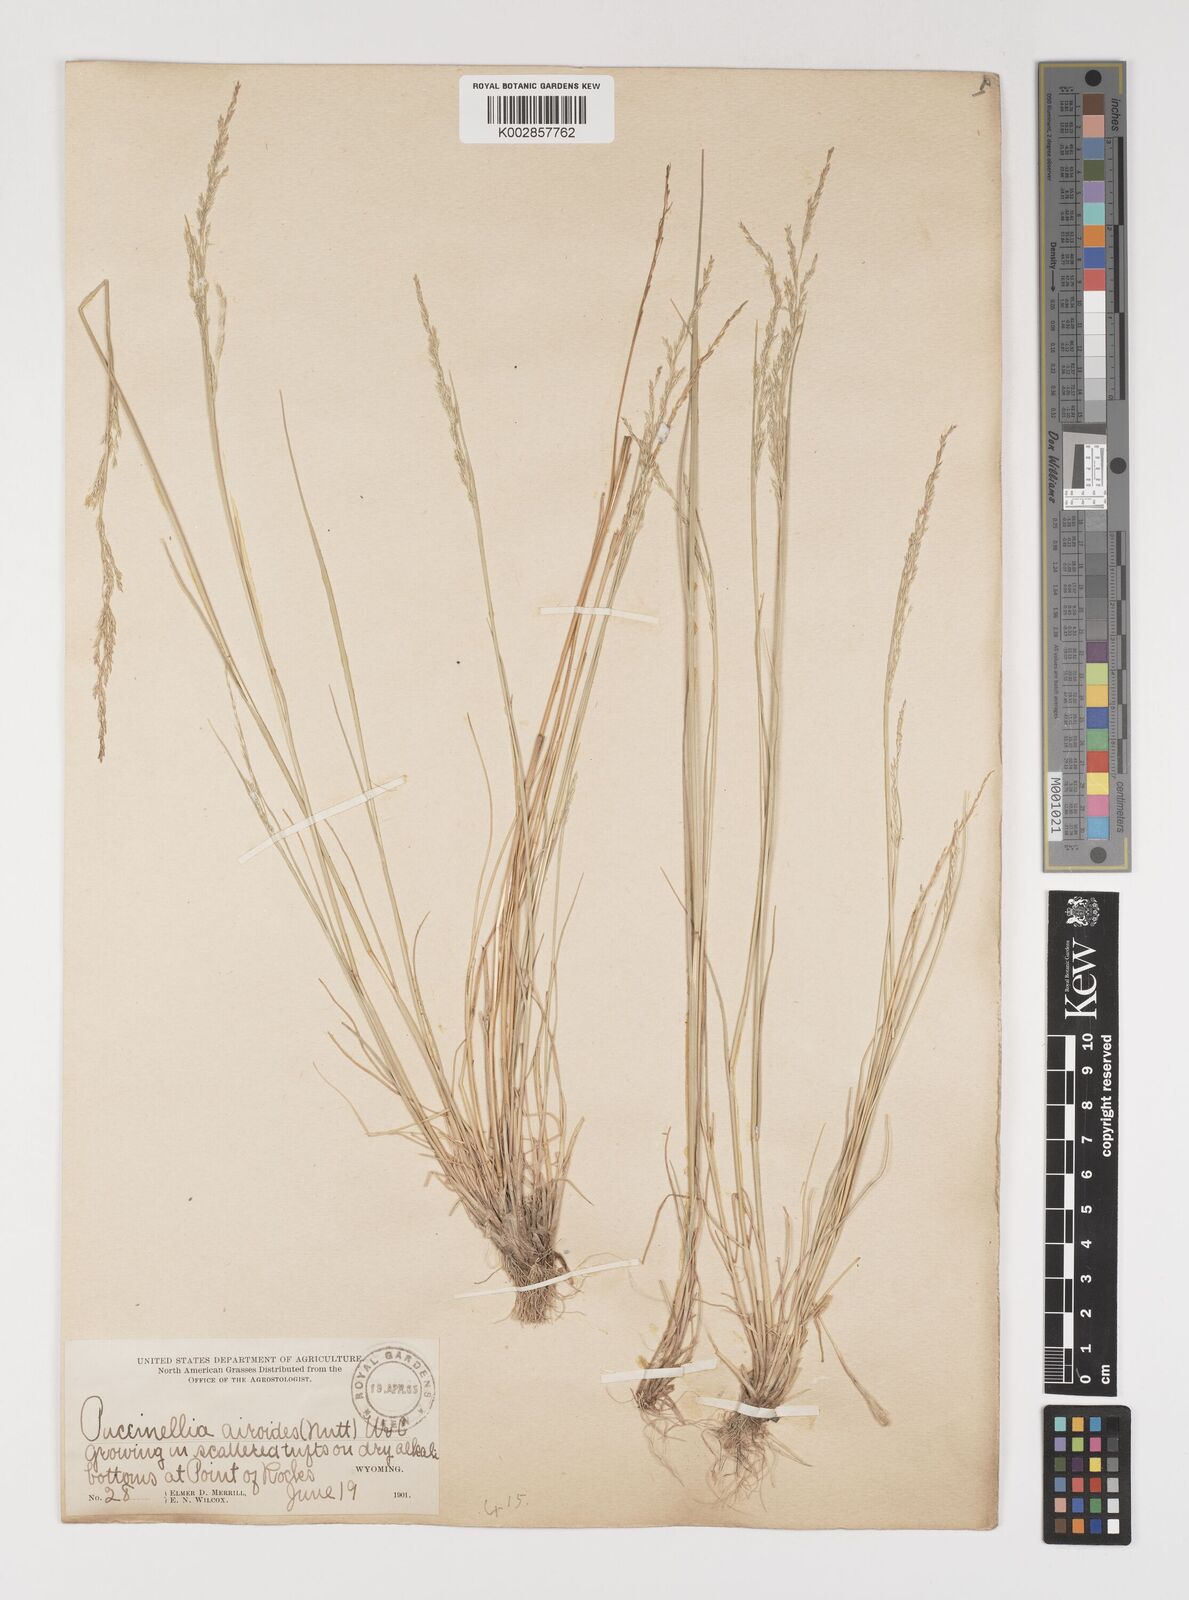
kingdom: Plantae
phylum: Tracheophyta
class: Liliopsida
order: Poales
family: Poaceae
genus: Puccinellia
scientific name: Puccinellia nuttalliana
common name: Nuttall's alkali grass
